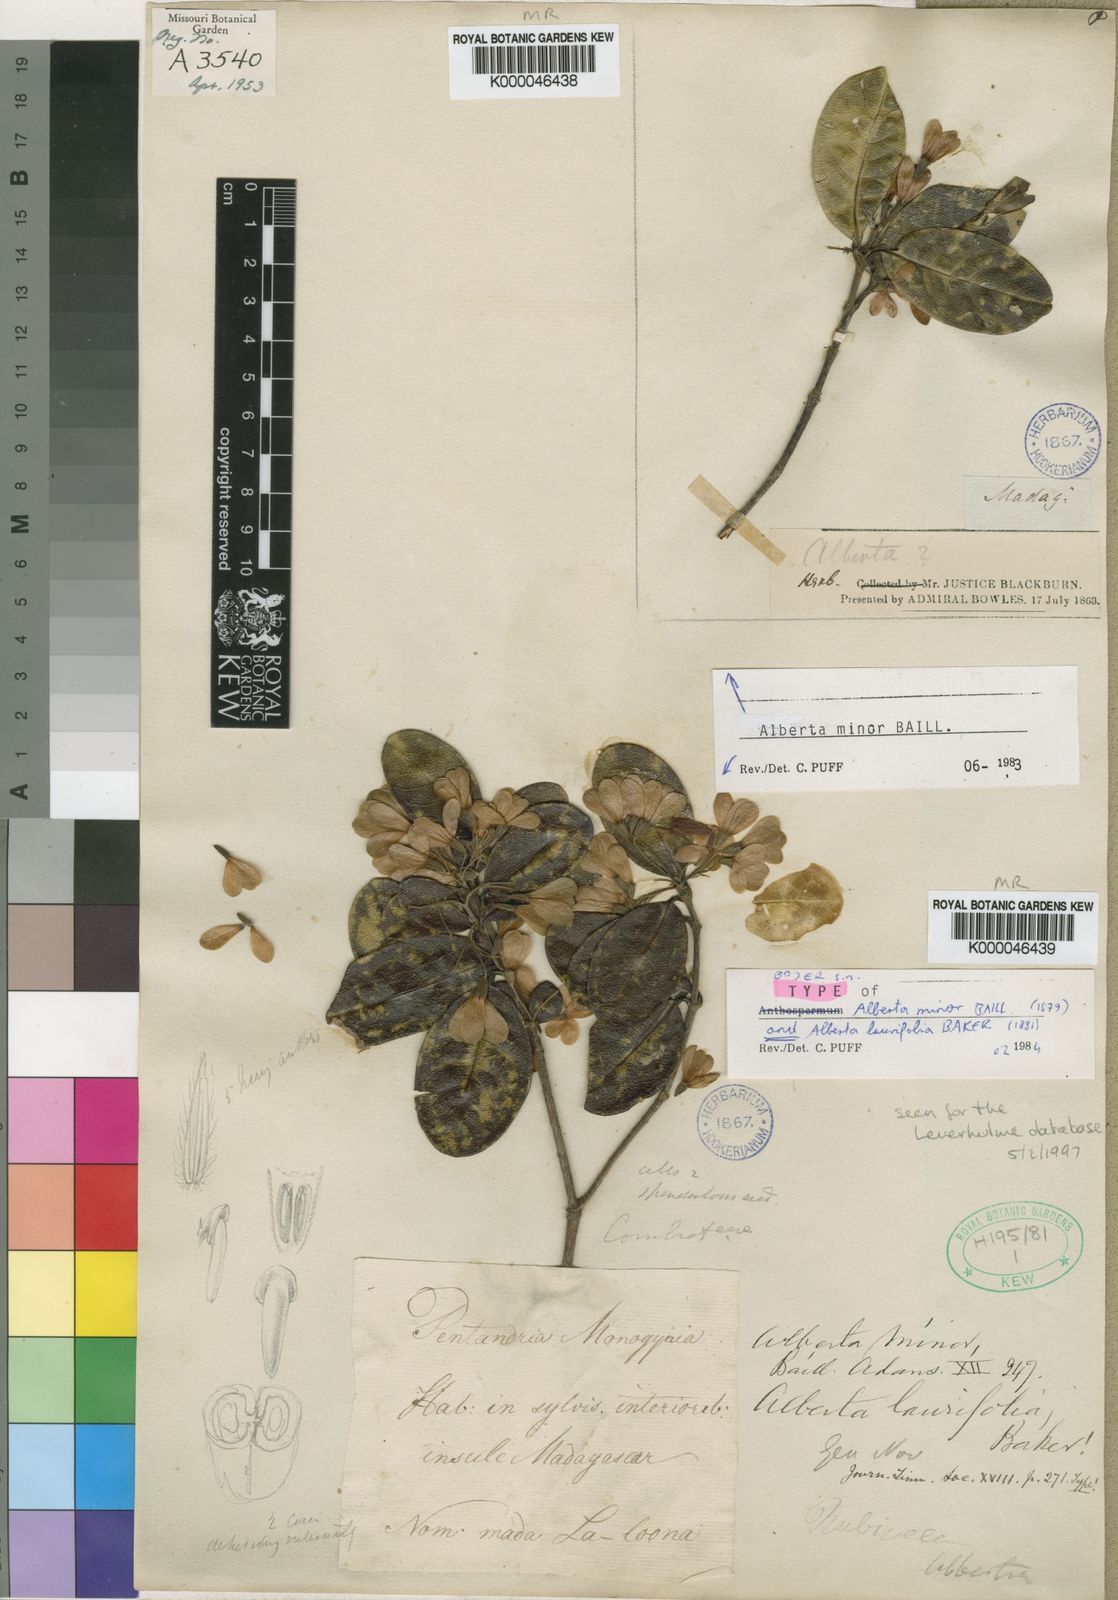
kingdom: Plantae
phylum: Tracheophyta
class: Magnoliopsida
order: Gentianales
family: Rubiaceae
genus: Razafimandimbisonia
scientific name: Razafimandimbisonia minor
